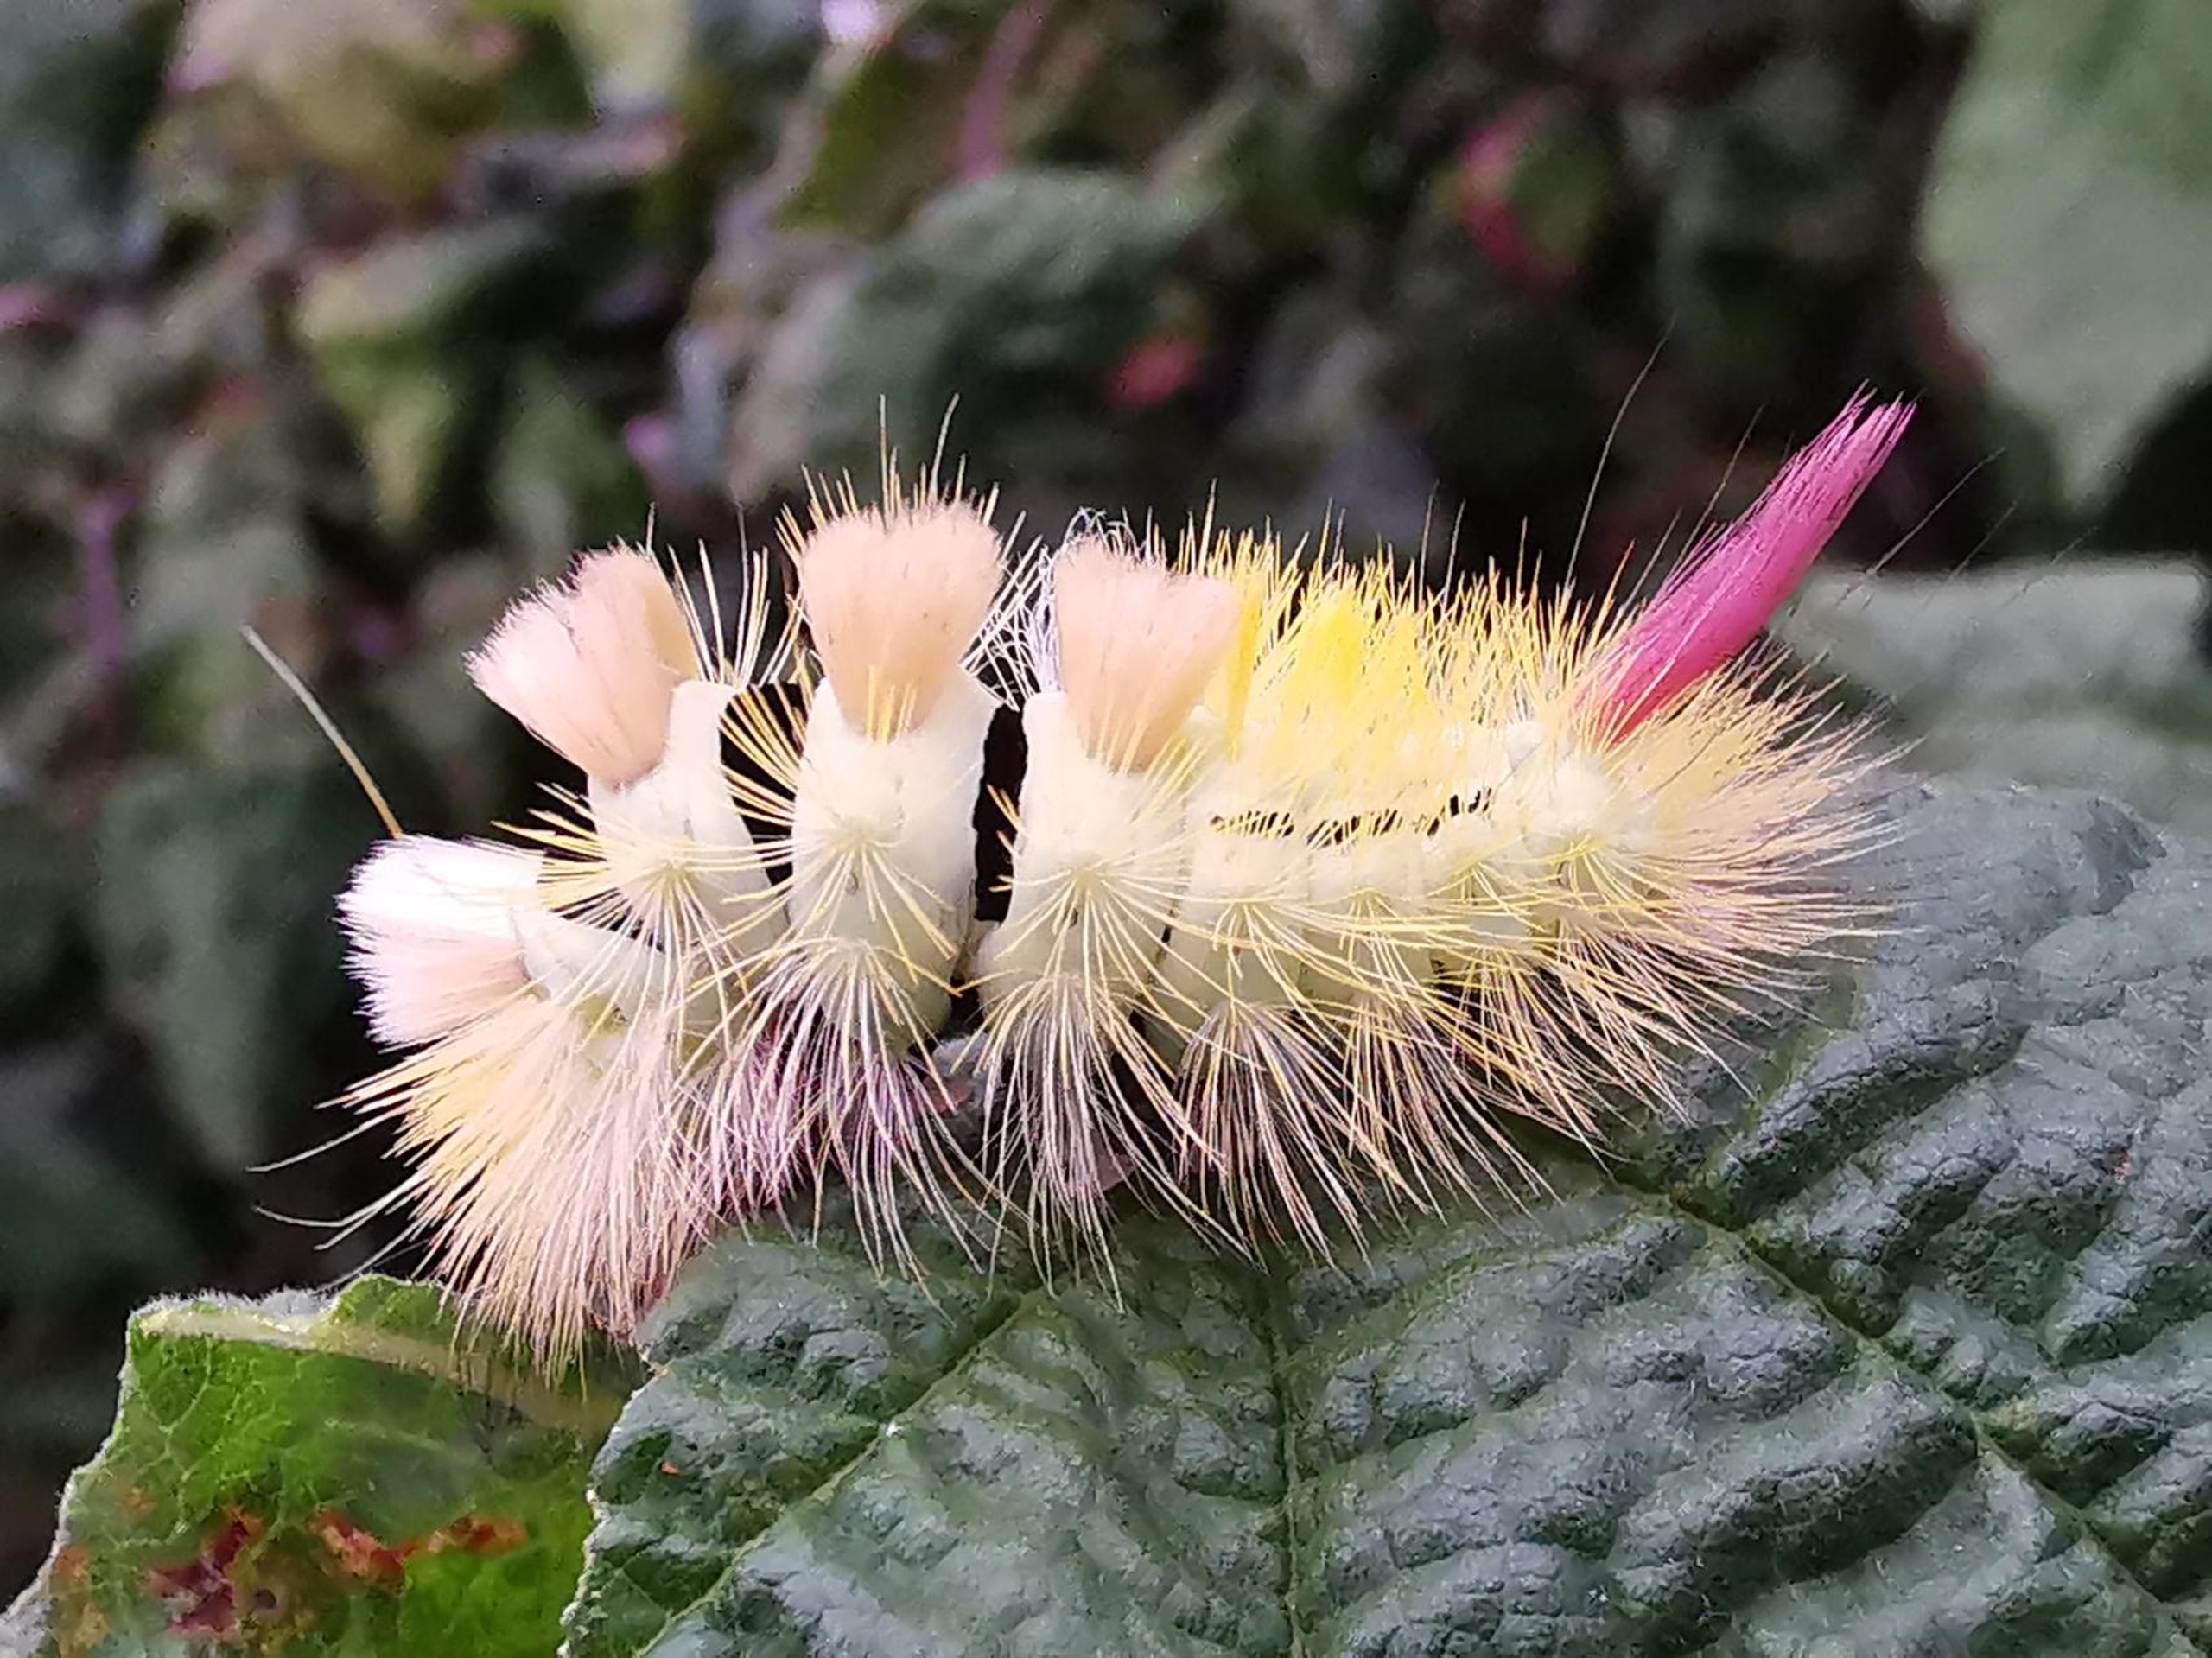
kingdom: Animalia
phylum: Arthropoda
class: Insecta
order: Lepidoptera
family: Erebidae
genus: Calliteara
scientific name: Calliteara pudibunda
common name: Bøgenonne
